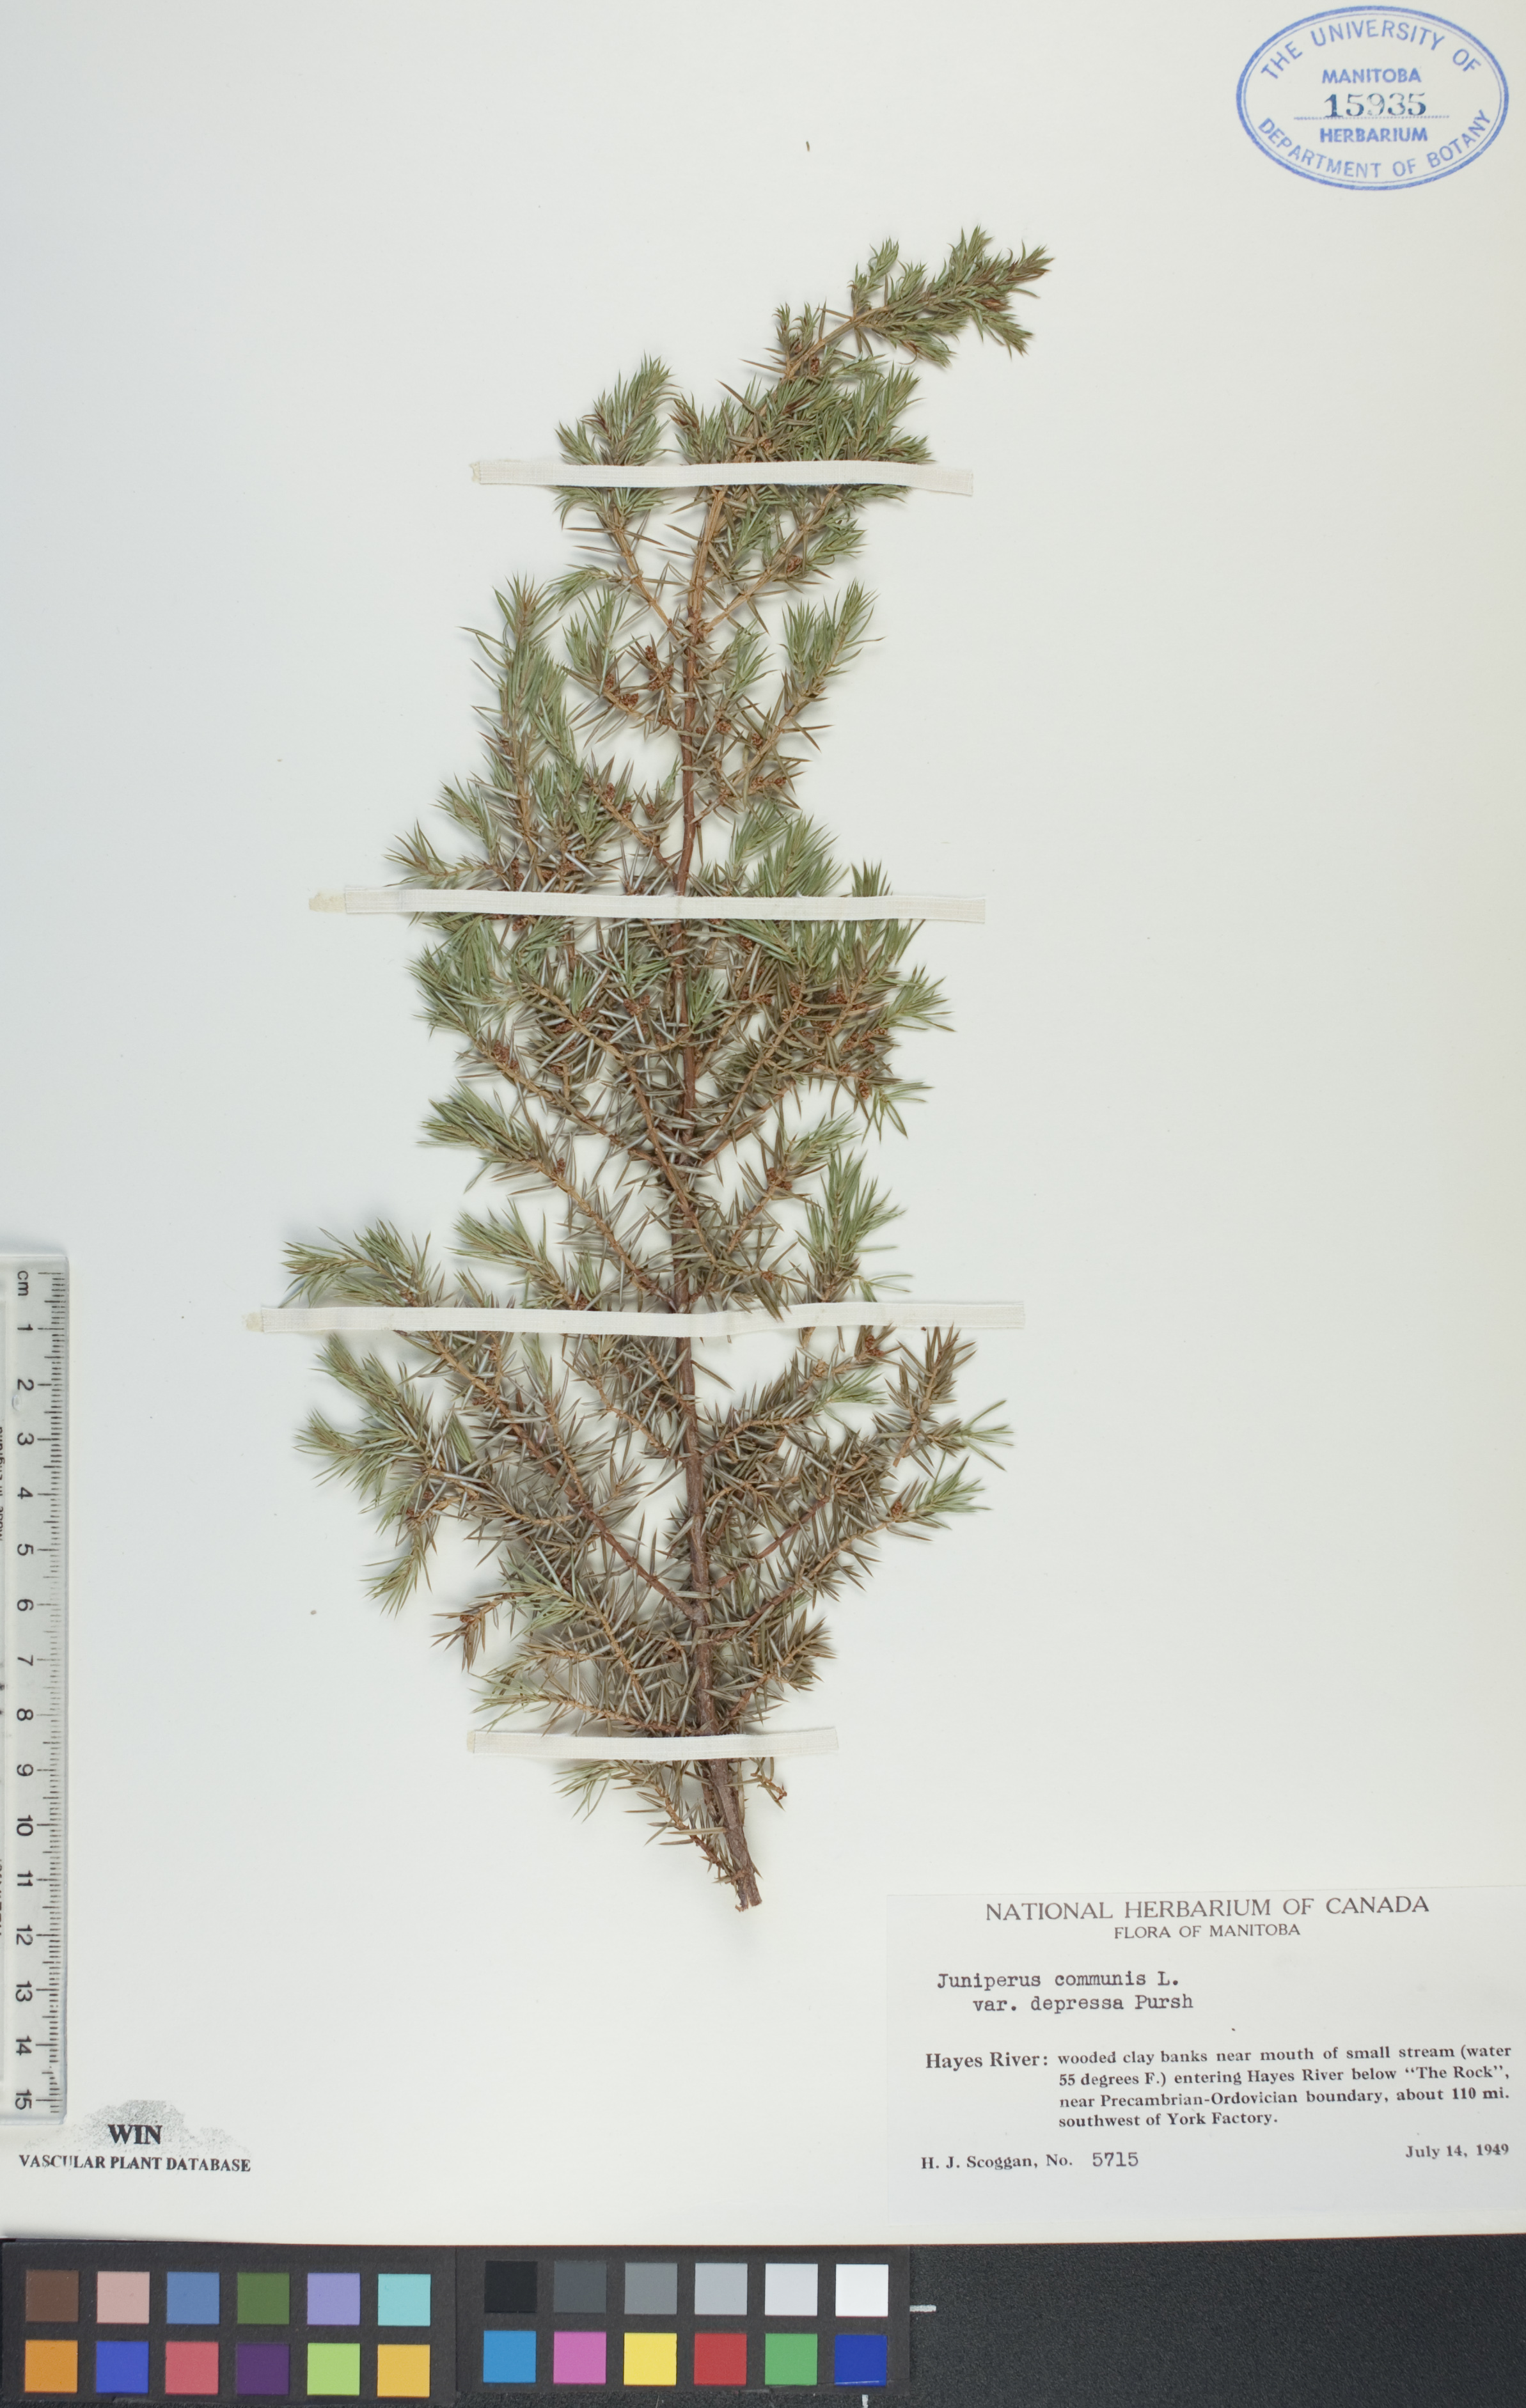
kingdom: Plantae
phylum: Tracheophyta
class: Pinopsida
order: Pinales
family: Cupressaceae
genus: Juniperus
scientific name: Juniperus communis
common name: Common juniper
